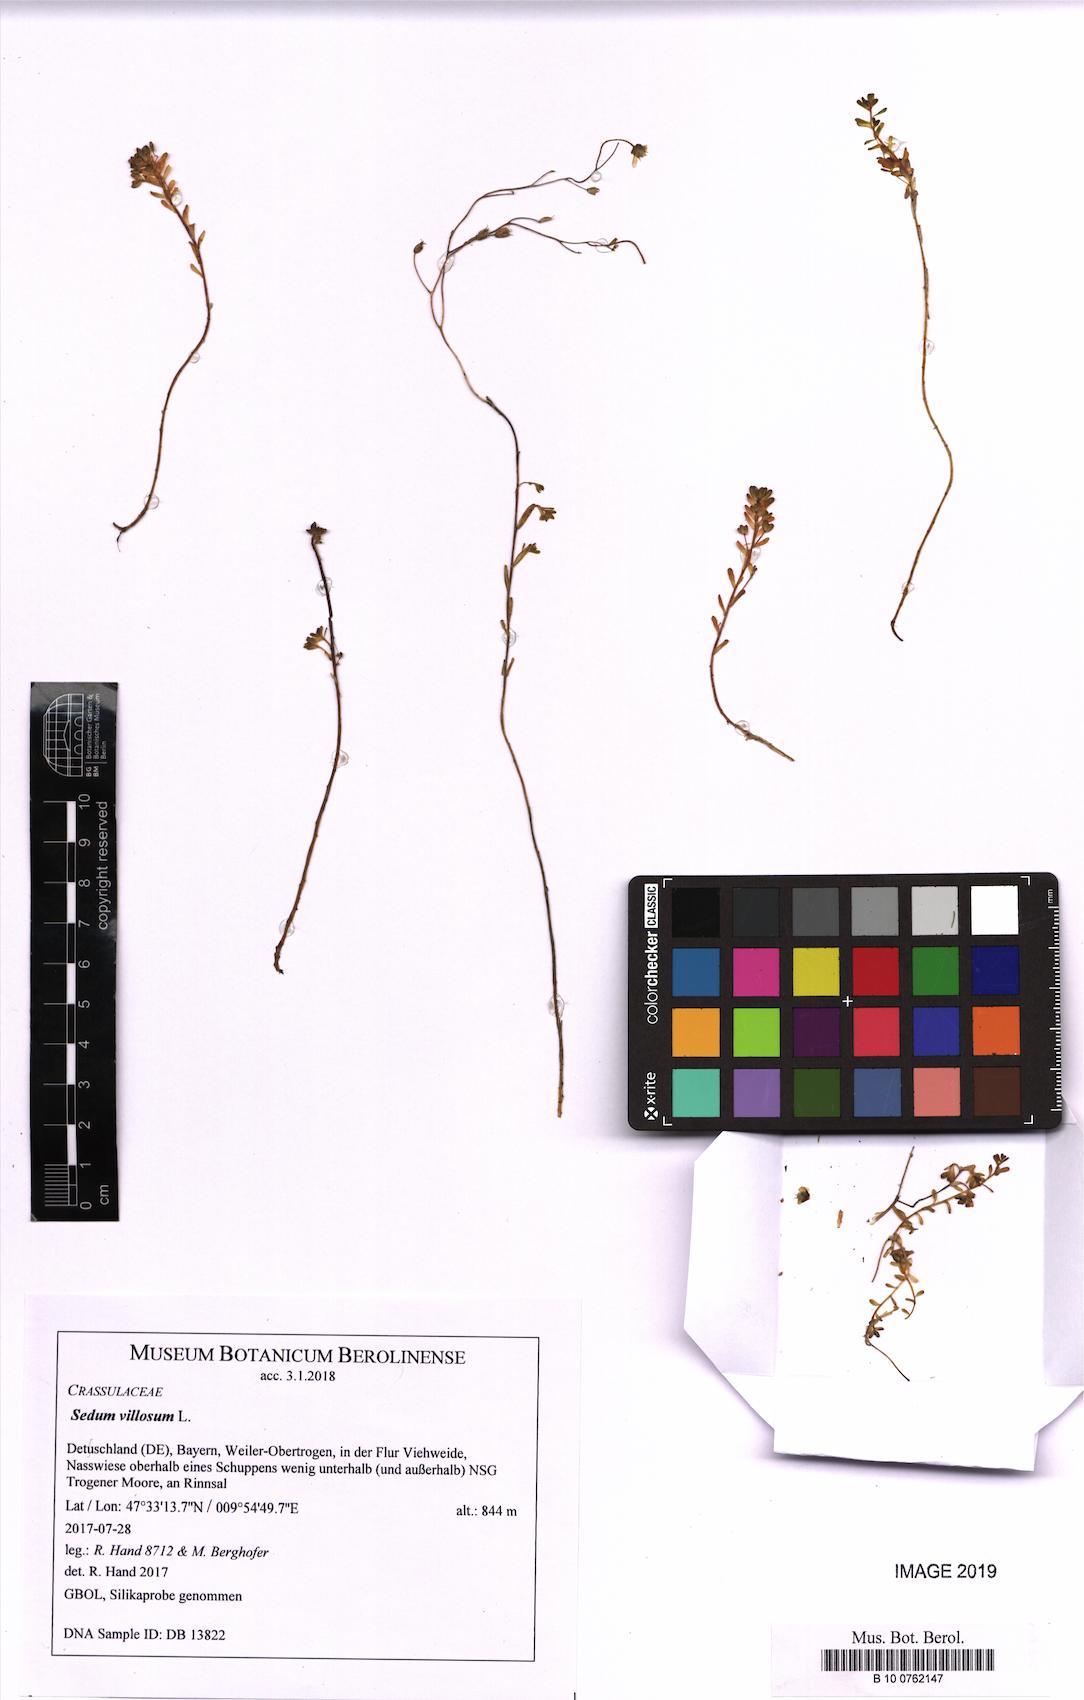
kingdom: Plantae
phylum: Tracheophyta
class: Magnoliopsida
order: Saxifragales
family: Crassulaceae
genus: Sedum
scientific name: Sedum villosum
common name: Hairy stonecrop
